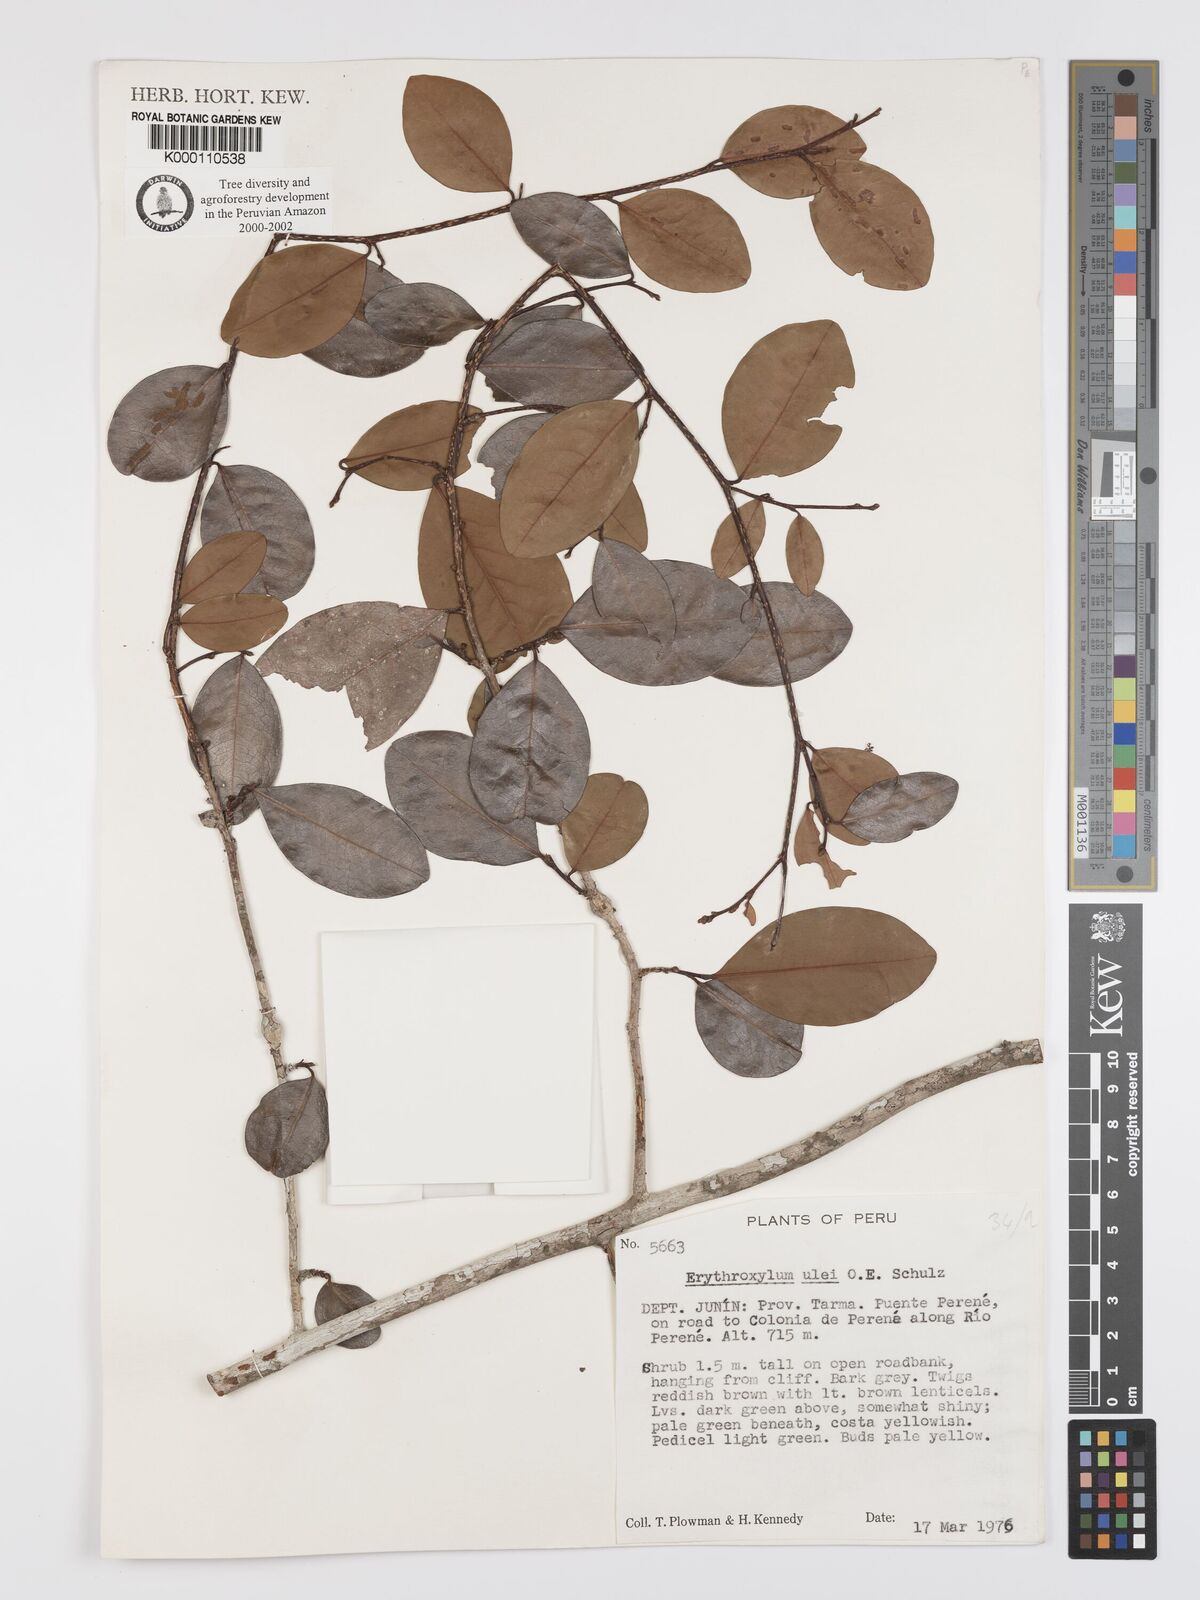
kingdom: Plantae
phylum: Tracheophyta
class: Magnoliopsida
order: Malpighiales
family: Erythroxylaceae
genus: Erythroxylum
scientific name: Erythroxylum ulei
